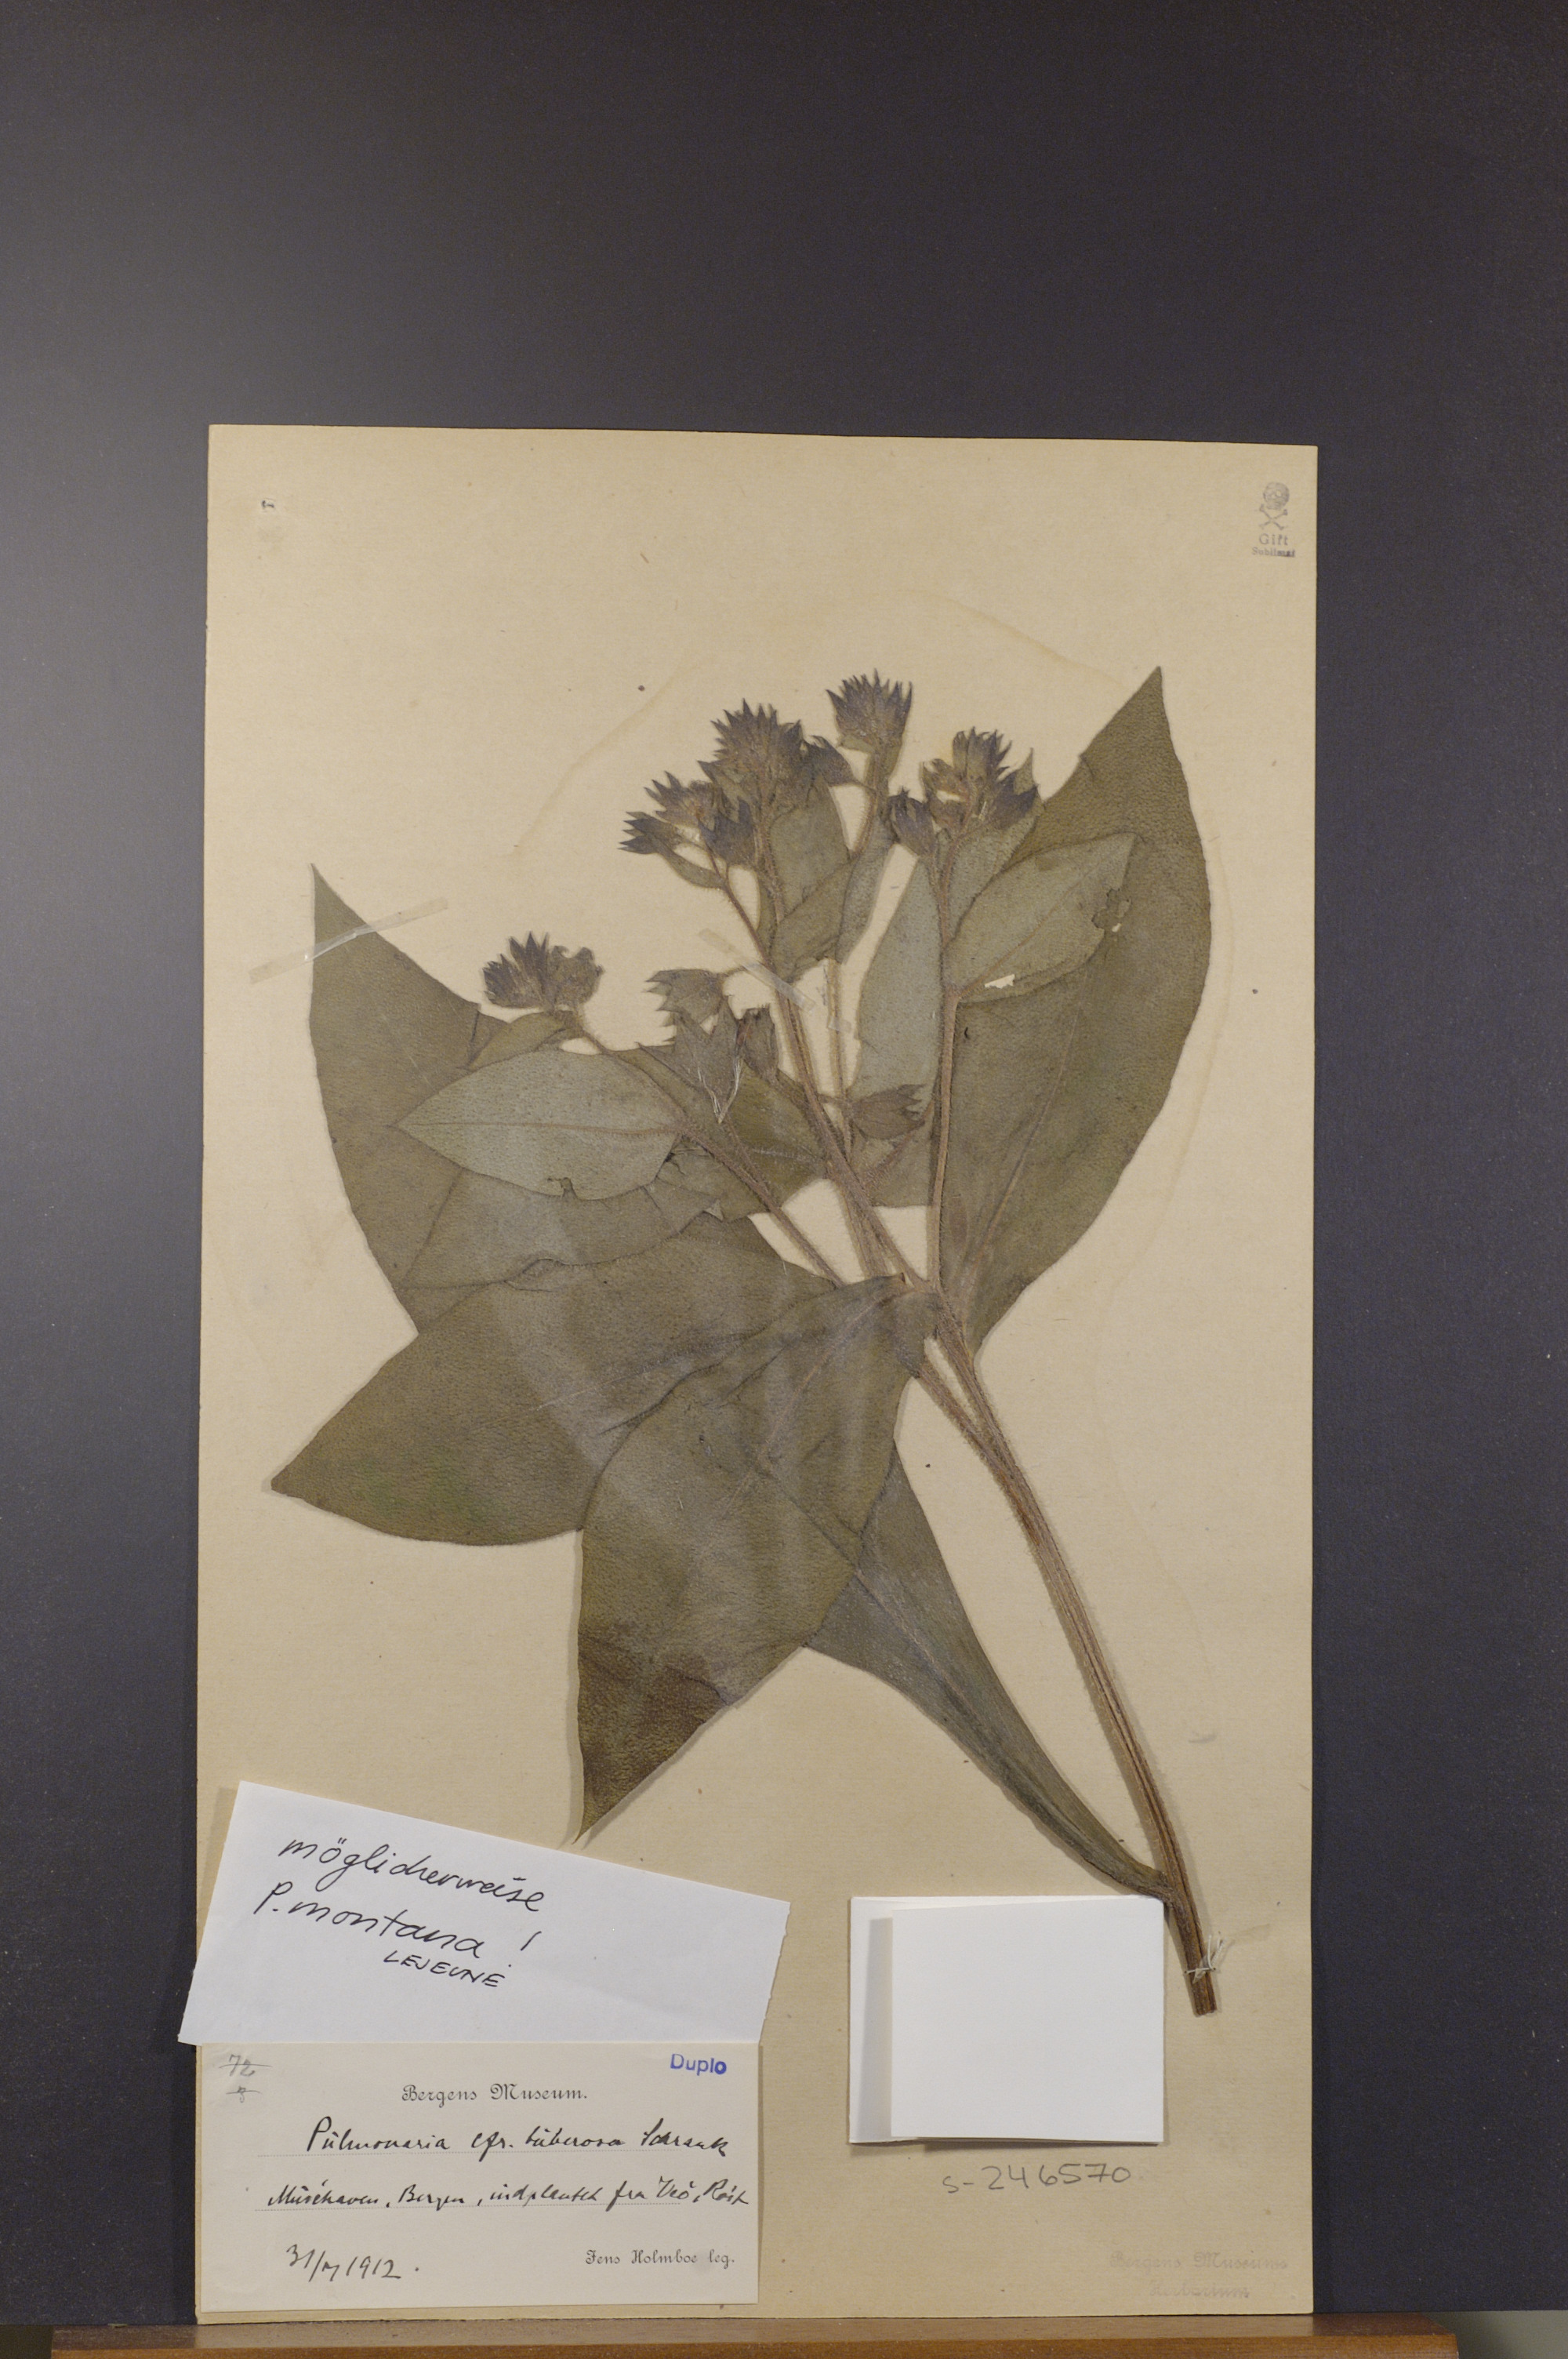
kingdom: Plantae
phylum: Tracheophyta
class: Magnoliopsida
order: Boraginales
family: Boraginaceae
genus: Pulmonaria
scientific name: Pulmonaria saccharata
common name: Bethlehem lungwort
